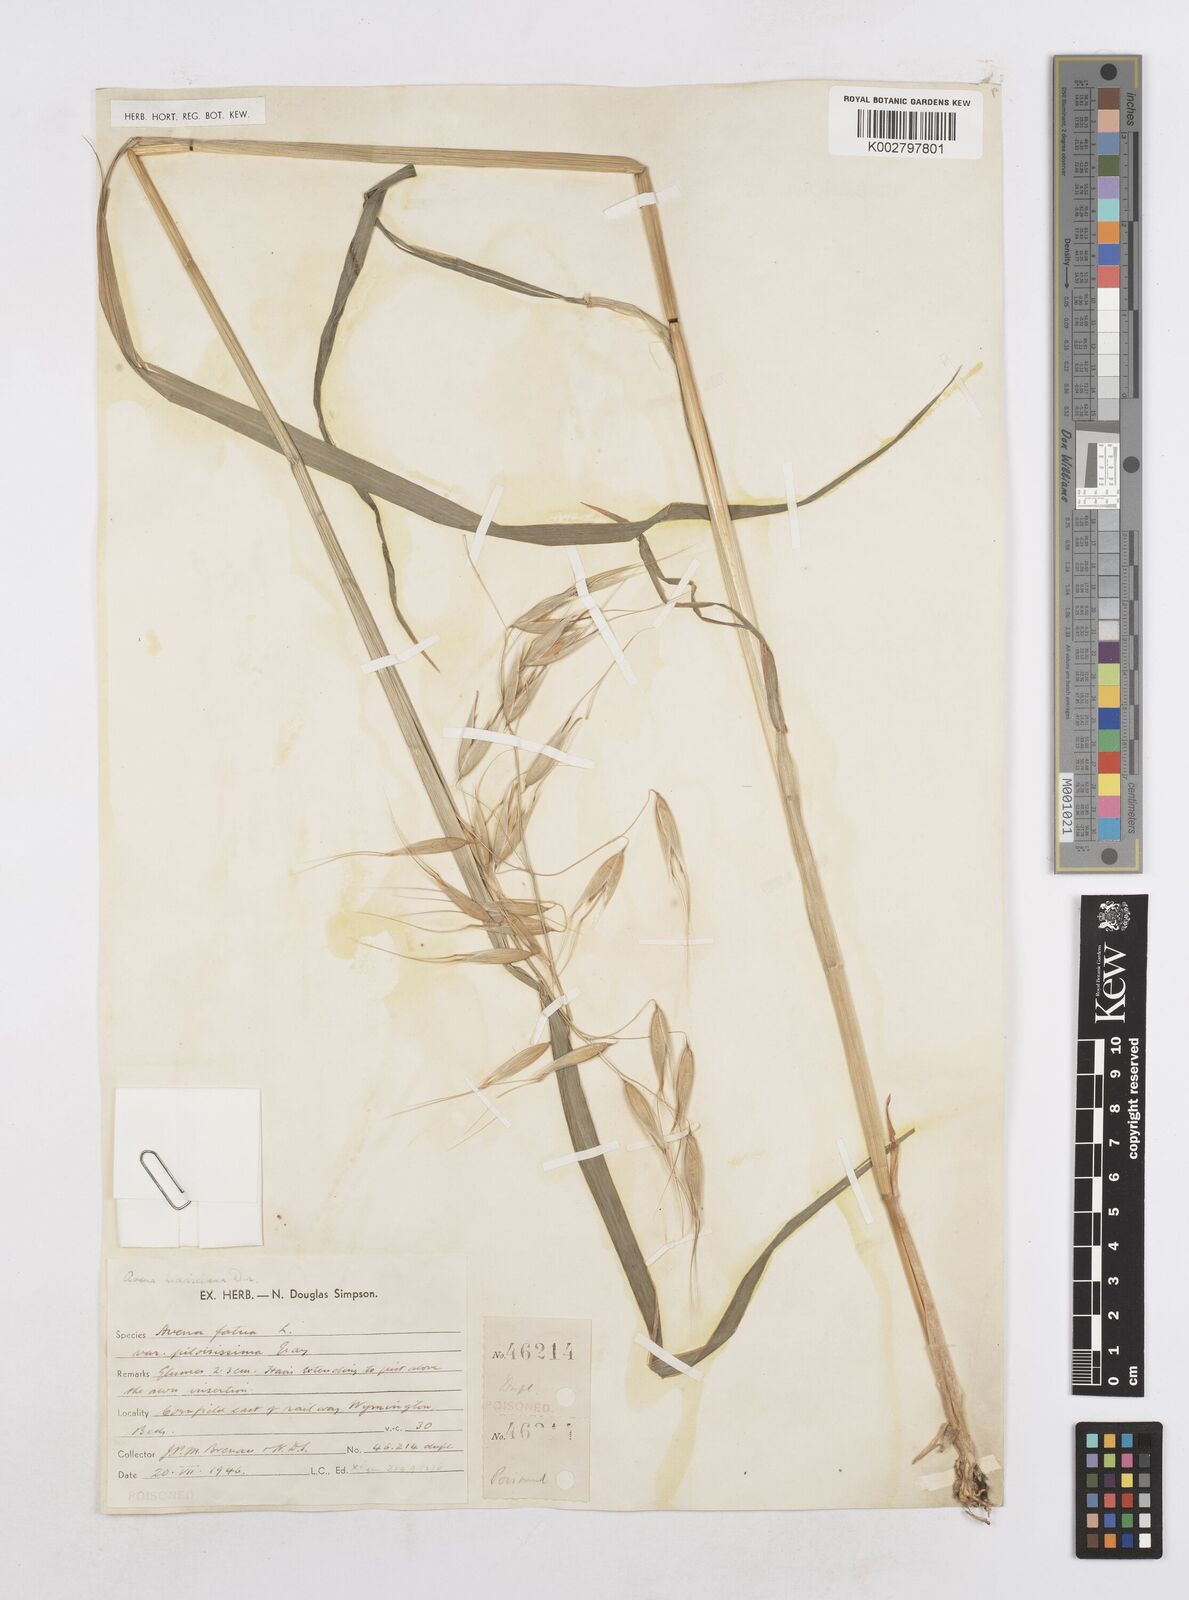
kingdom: Plantae
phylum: Tracheophyta
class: Liliopsida
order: Poales
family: Poaceae
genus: Avena
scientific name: Avena sterilis
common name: Animated oat
